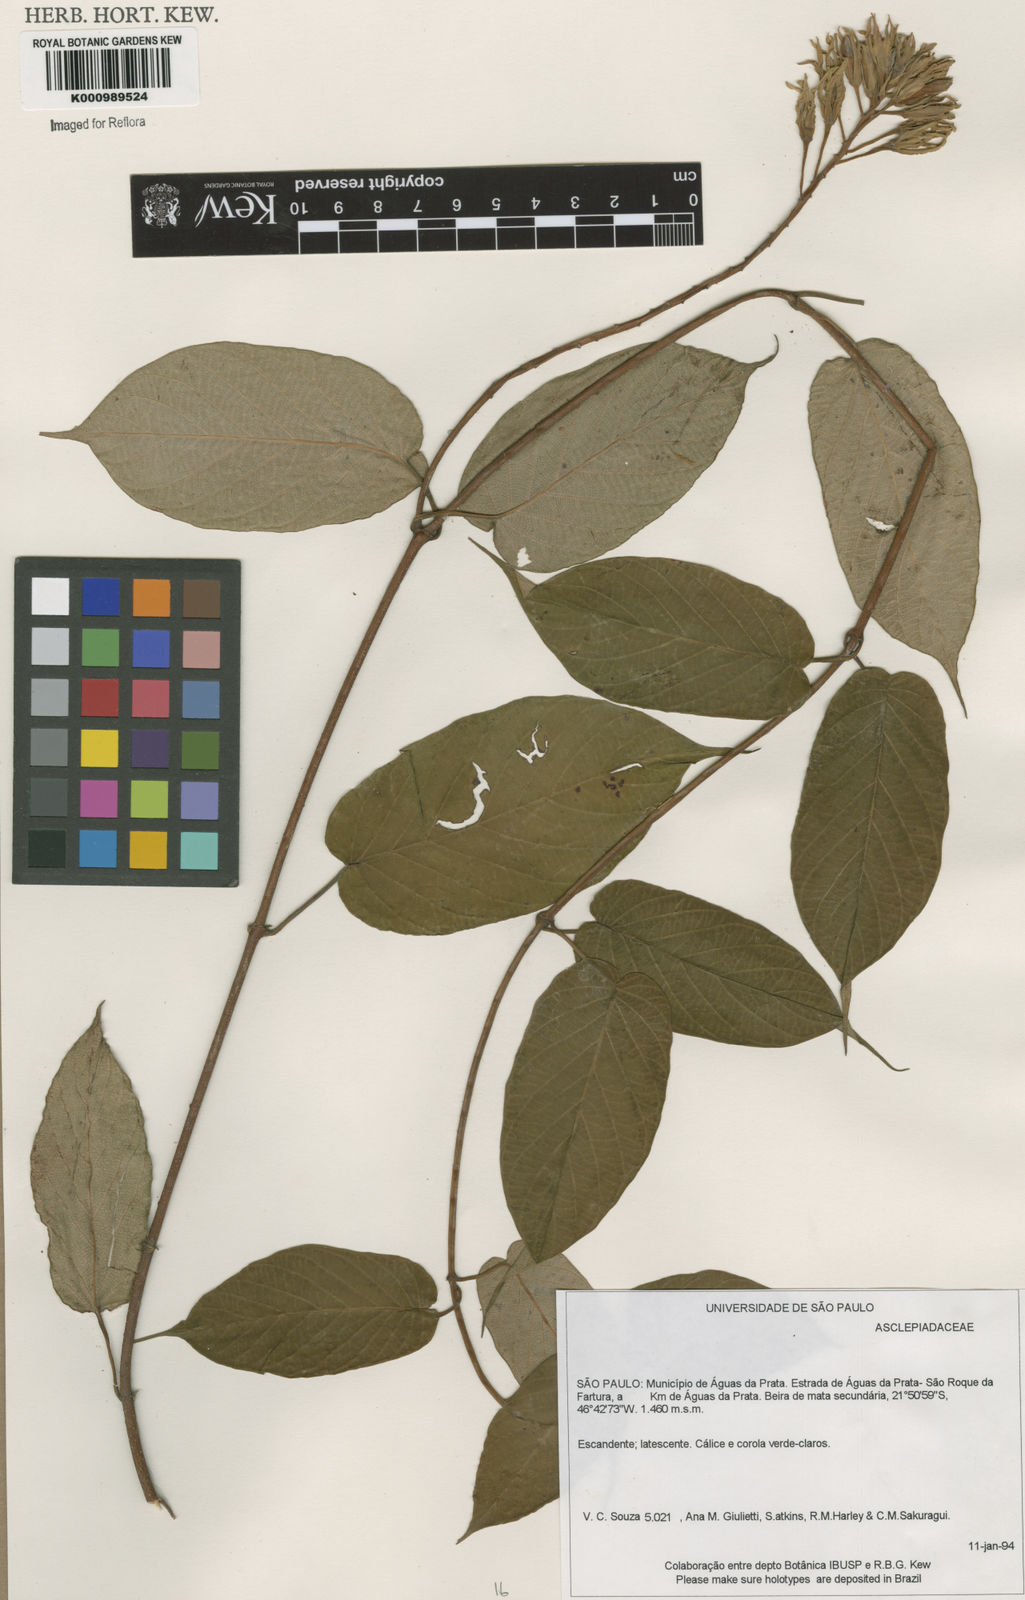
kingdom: Plantae
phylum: Tracheophyta
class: Magnoliopsida
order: Gentianales
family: Apocynaceae
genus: Mandevilla
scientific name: Mandevilla
